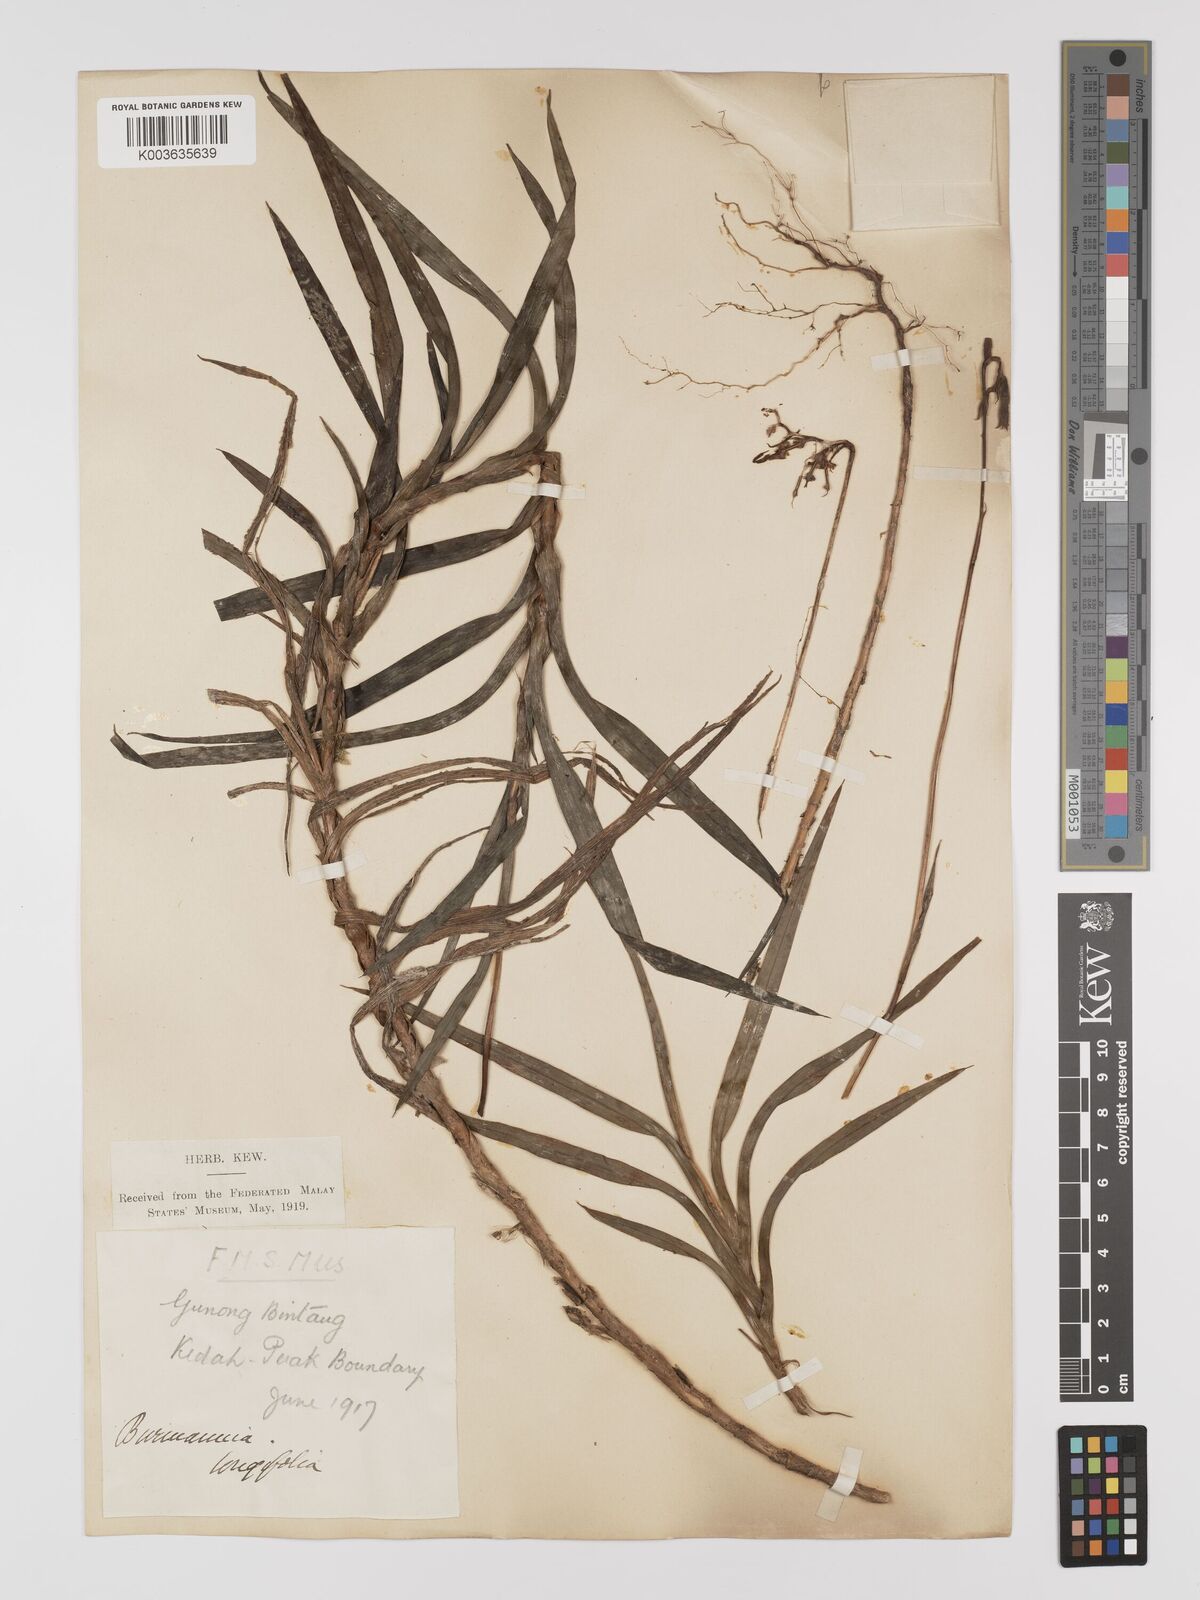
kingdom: Plantae
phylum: Tracheophyta
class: Liliopsida
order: Dioscoreales
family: Burmanniaceae
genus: Burmannia
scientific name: Burmannia longifolia
